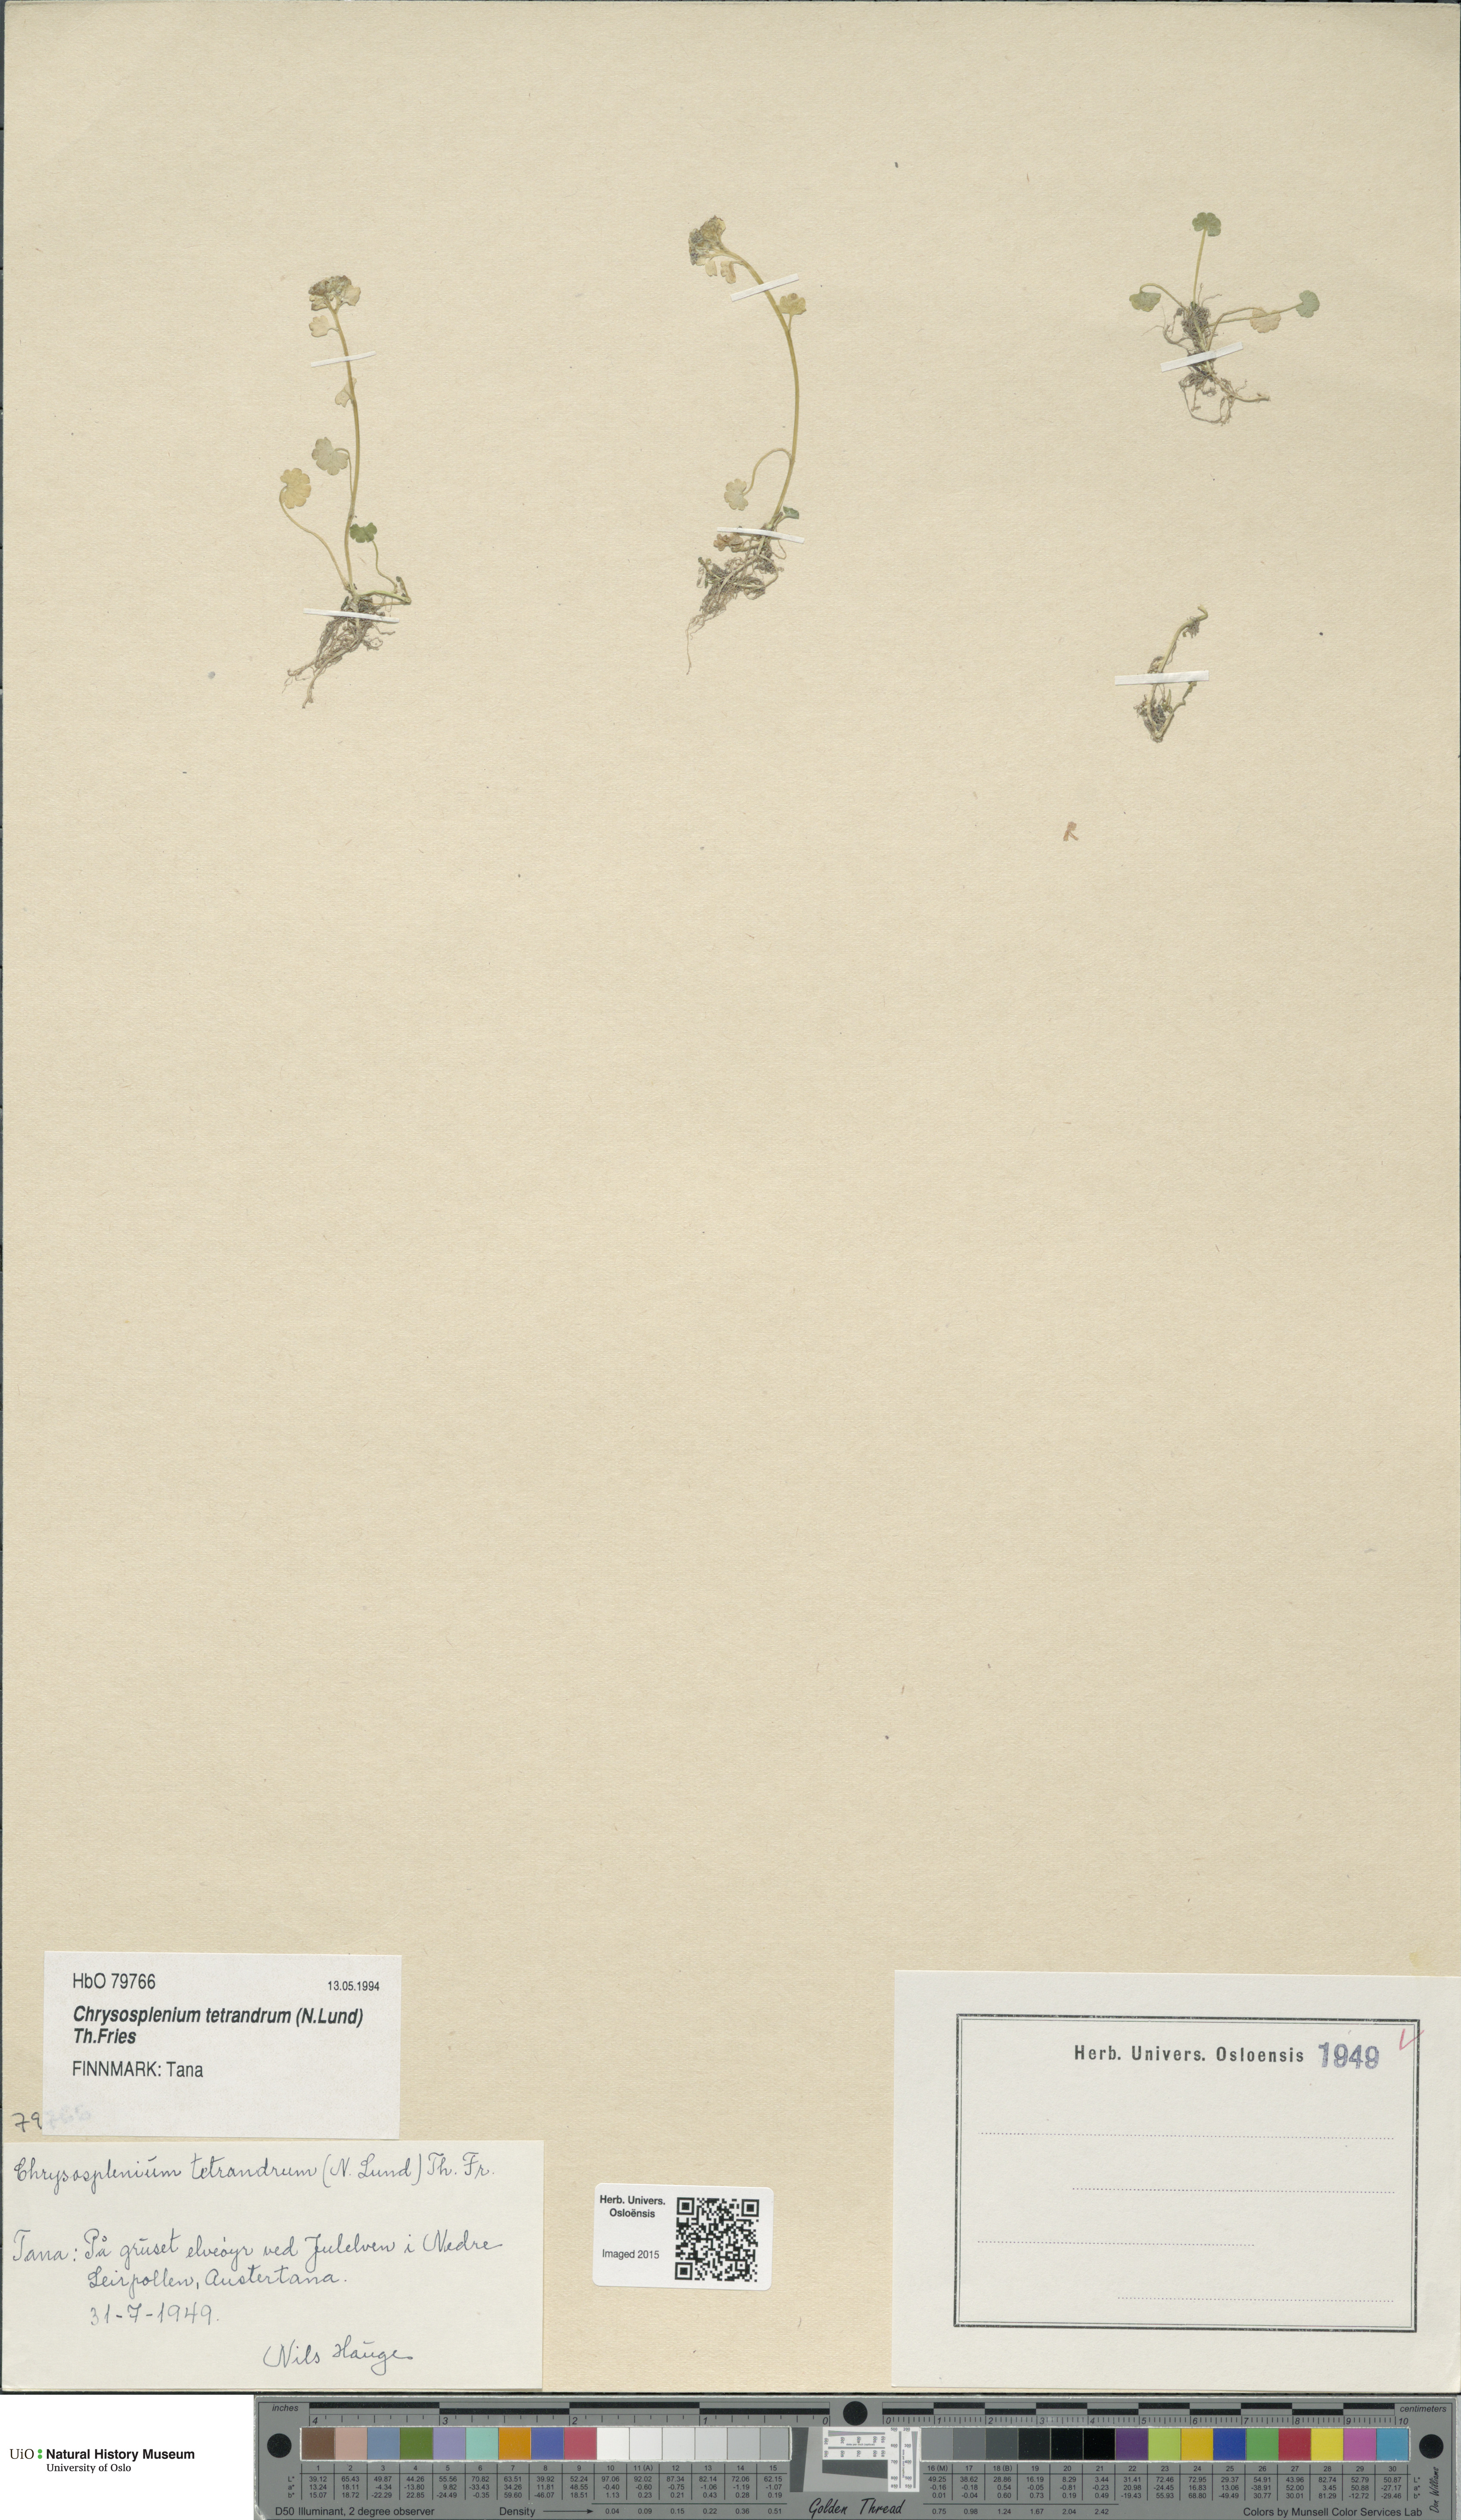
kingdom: Plantae
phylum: Tracheophyta
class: Magnoliopsida
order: Saxifragales
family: Saxifragaceae
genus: Chrysosplenium
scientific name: Chrysosplenium tetrandrum
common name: Green saxifrage
